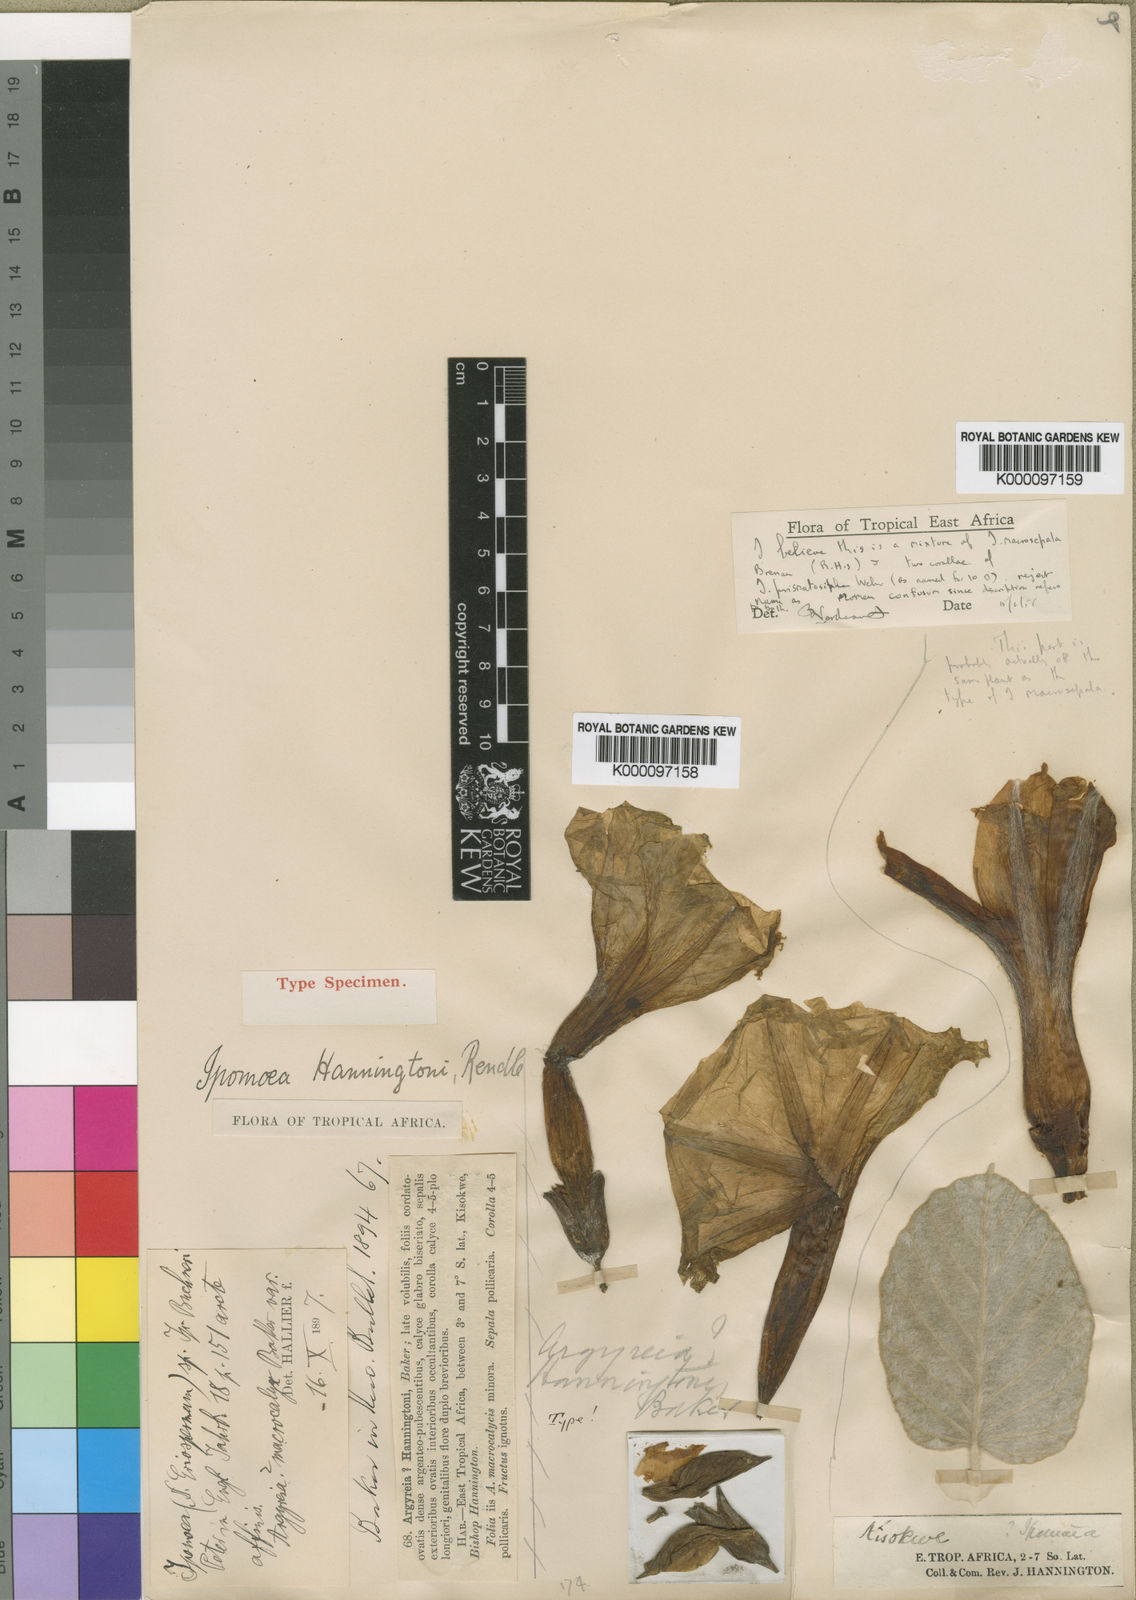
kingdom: Plantae
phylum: Tracheophyta
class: Magnoliopsida
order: Solanales
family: Convolvulaceae
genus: Ipomoea
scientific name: Ipomoea macrosepala
